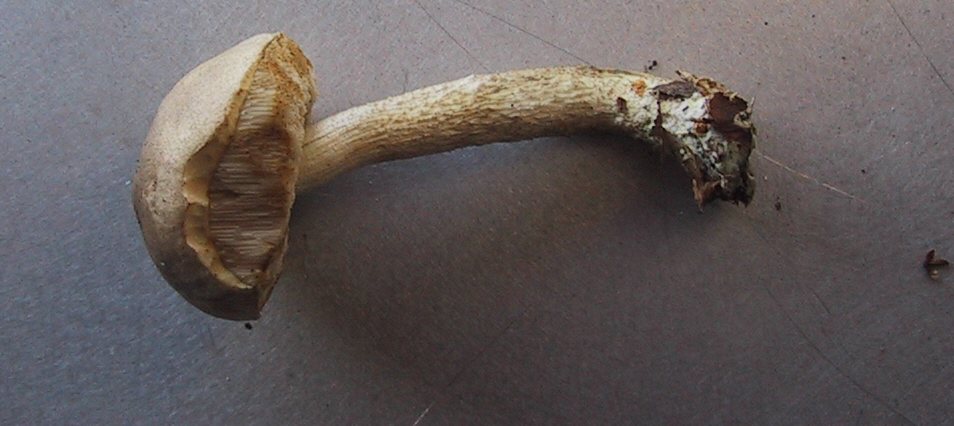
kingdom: Fungi
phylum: Basidiomycota
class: Agaricomycetes
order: Boletales
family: Boletaceae
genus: Leccinum
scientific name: Leccinum scabrum
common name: hvid skælrørhat
